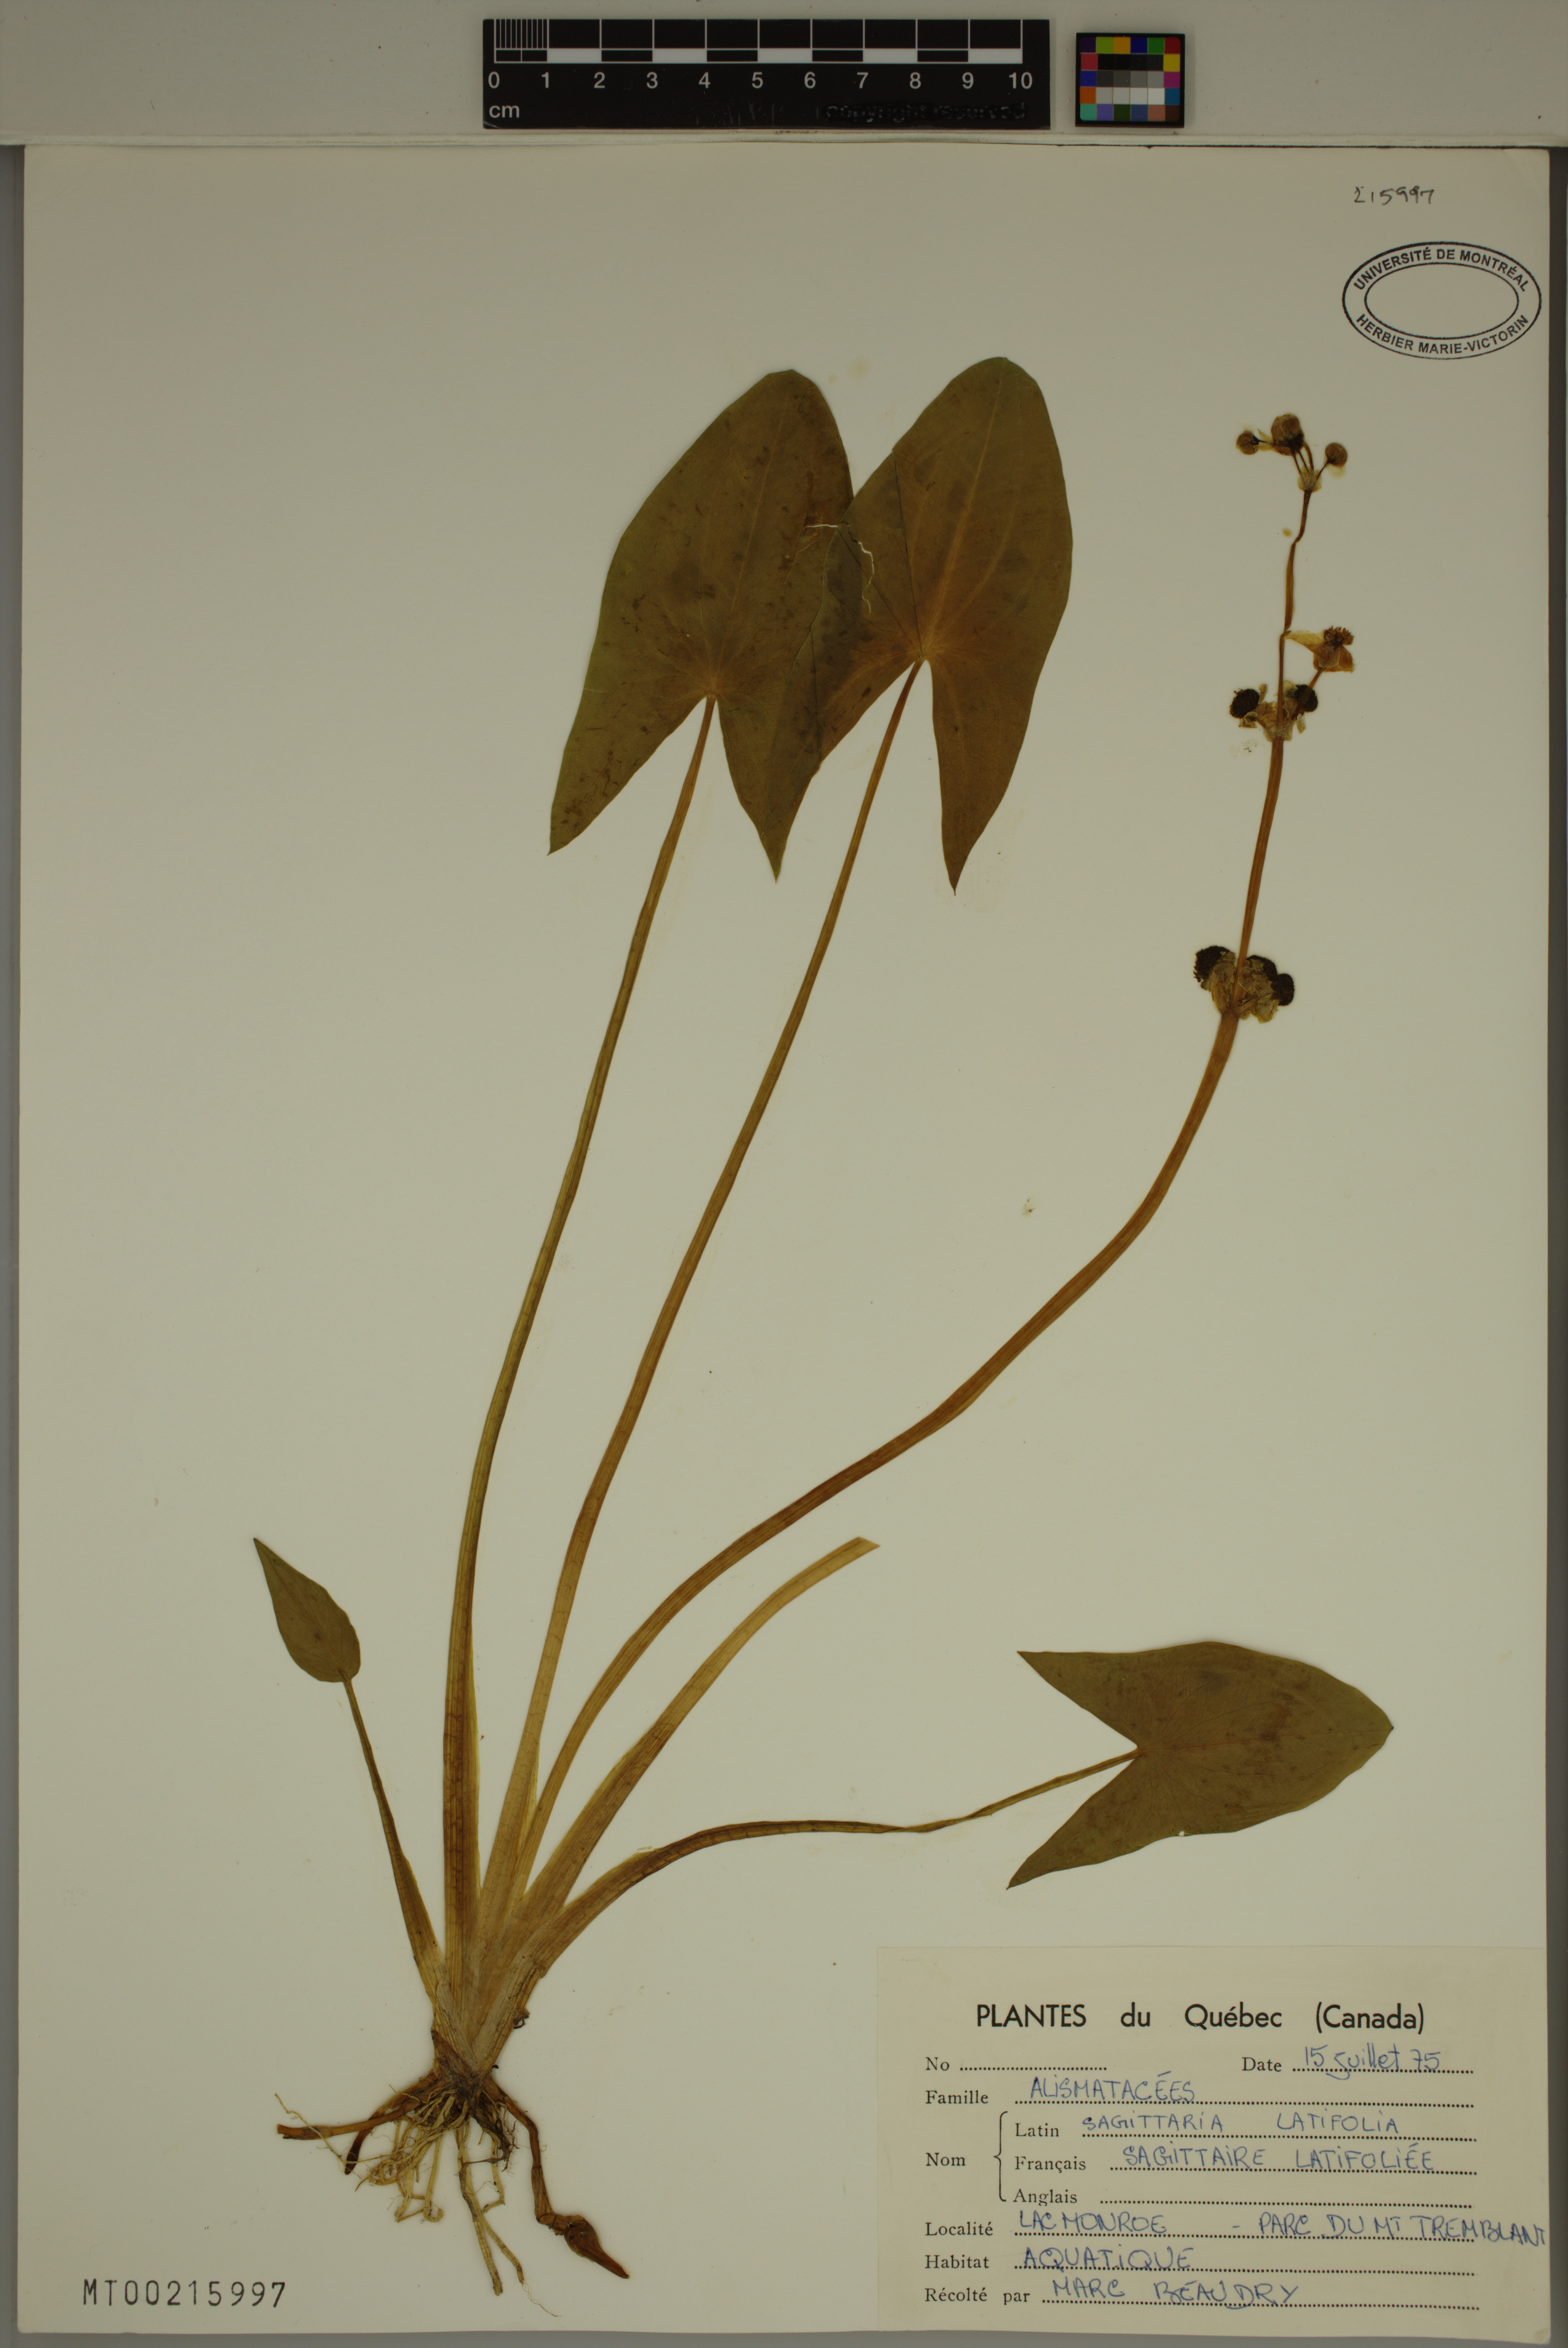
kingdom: Plantae
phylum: Tracheophyta
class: Liliopsida
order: Alismatales
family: Alismataceae
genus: Sagittaria
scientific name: Sagittaria latifolia
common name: Duck-potato
